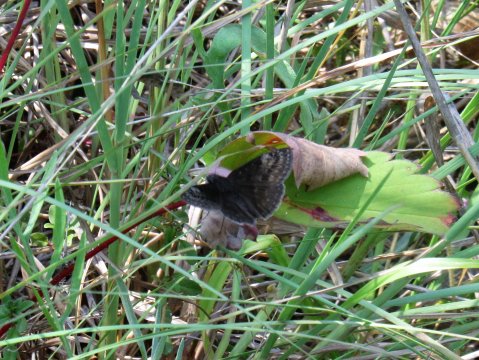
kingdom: Animalia
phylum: Arthropoda
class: Insecta
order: Lepidoptera
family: Hesperiidae
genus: Gesta
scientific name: Gesta
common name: Wild Indigo Duskywing
